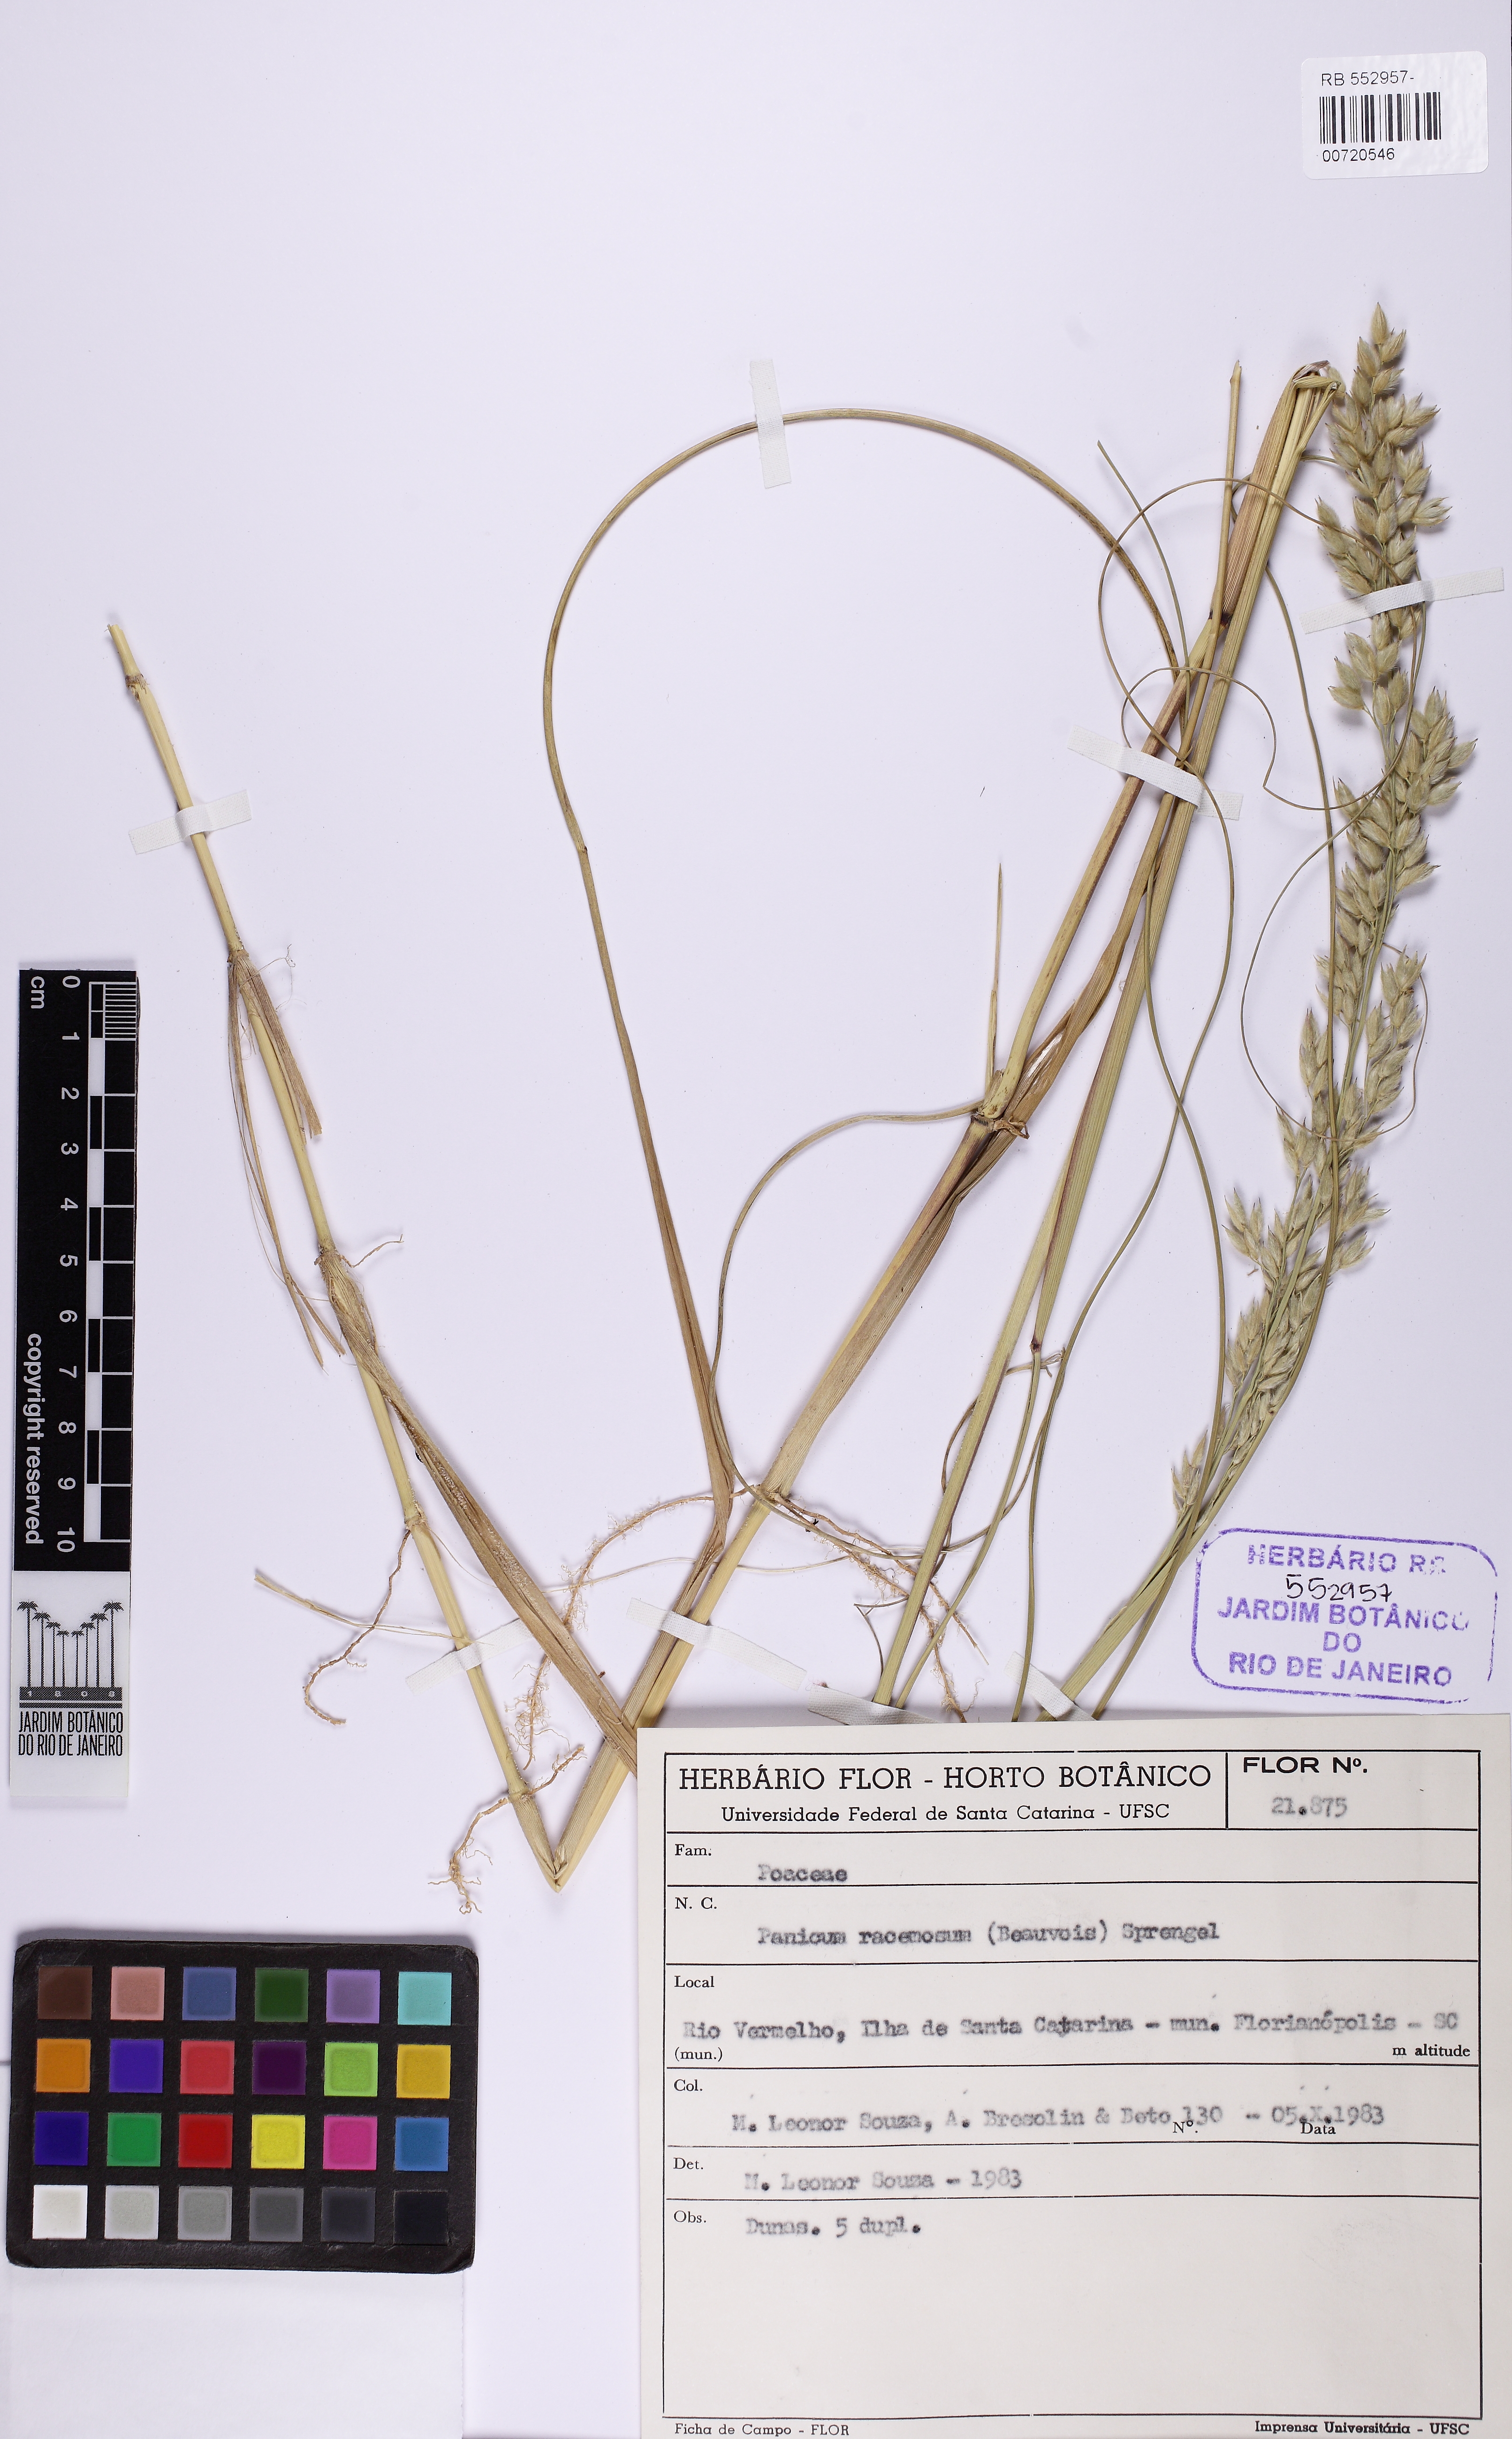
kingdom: Plantae
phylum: Tracheophyta
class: Liliopsida
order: Poales
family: Poaceae
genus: Panicum
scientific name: Panicum racemosum
